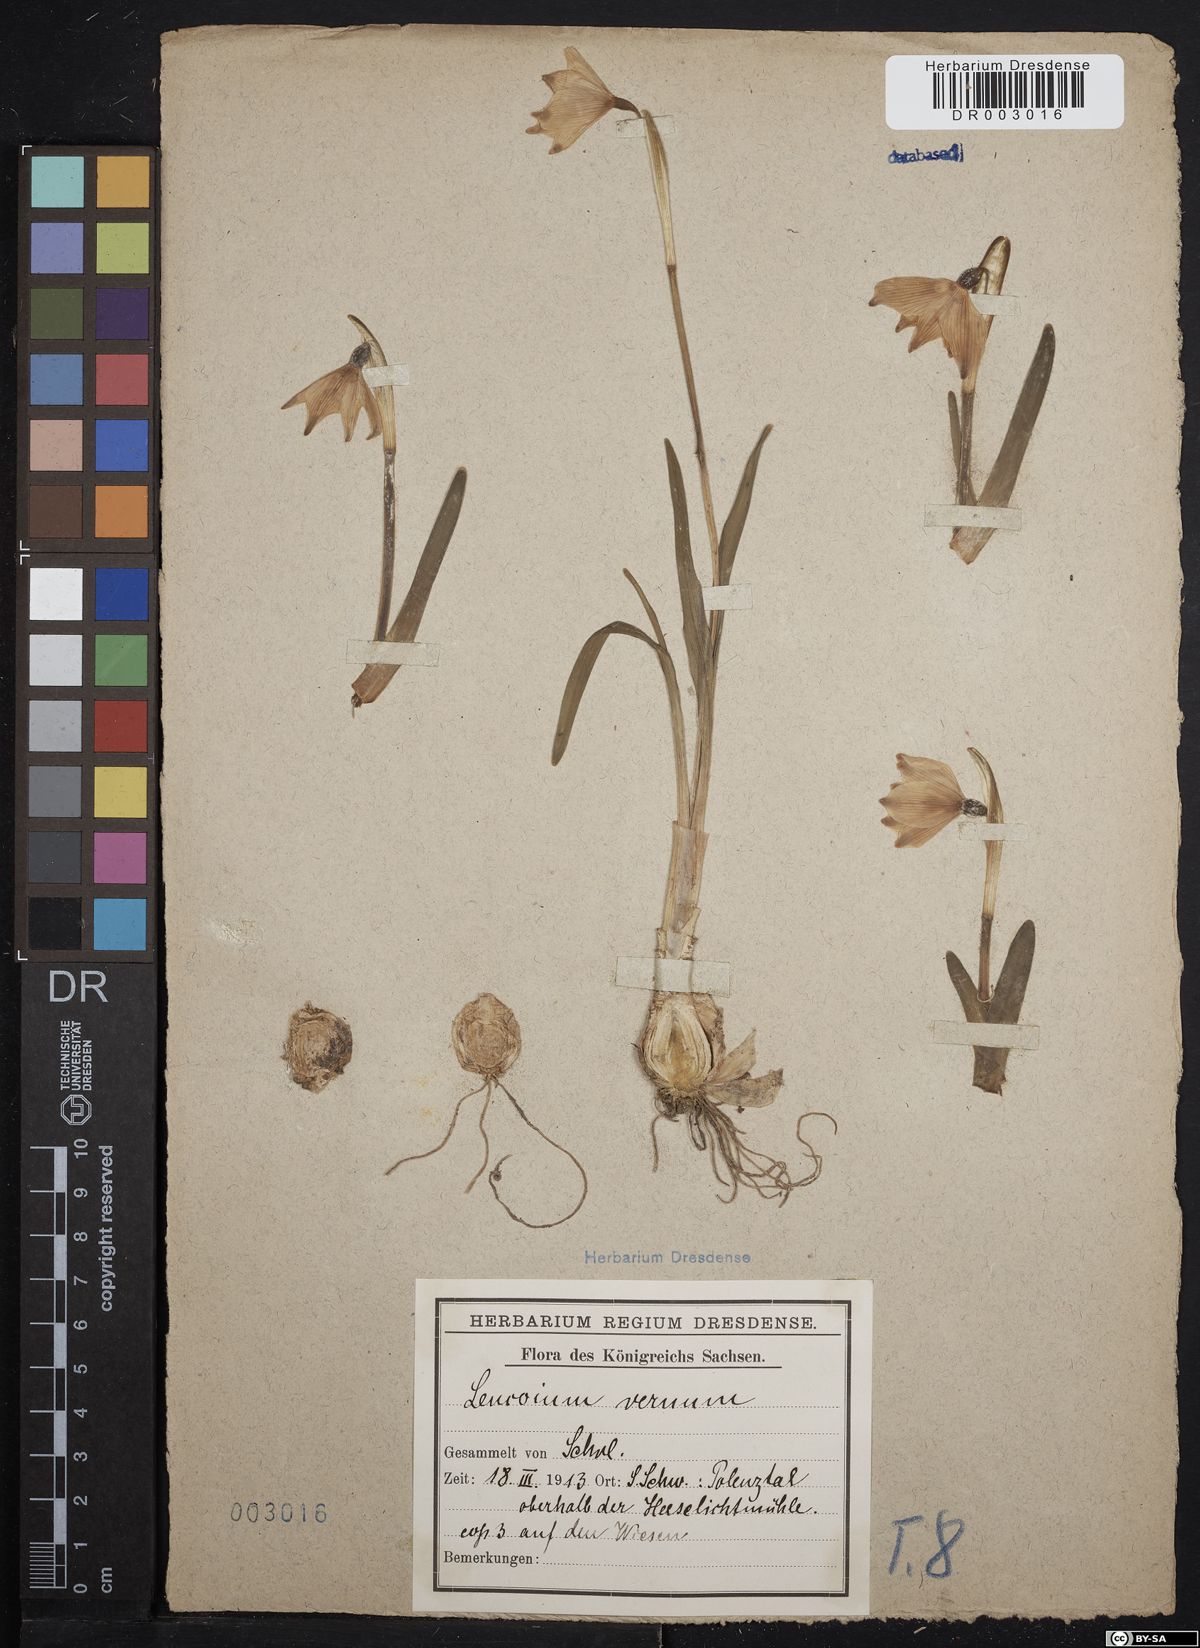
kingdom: Plantae
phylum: Tracheophyta
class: Liliopsida
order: Asparagales
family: Amaryllidaceae
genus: Leucojum
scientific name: Leucojum vernum
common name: Spring snowflake
